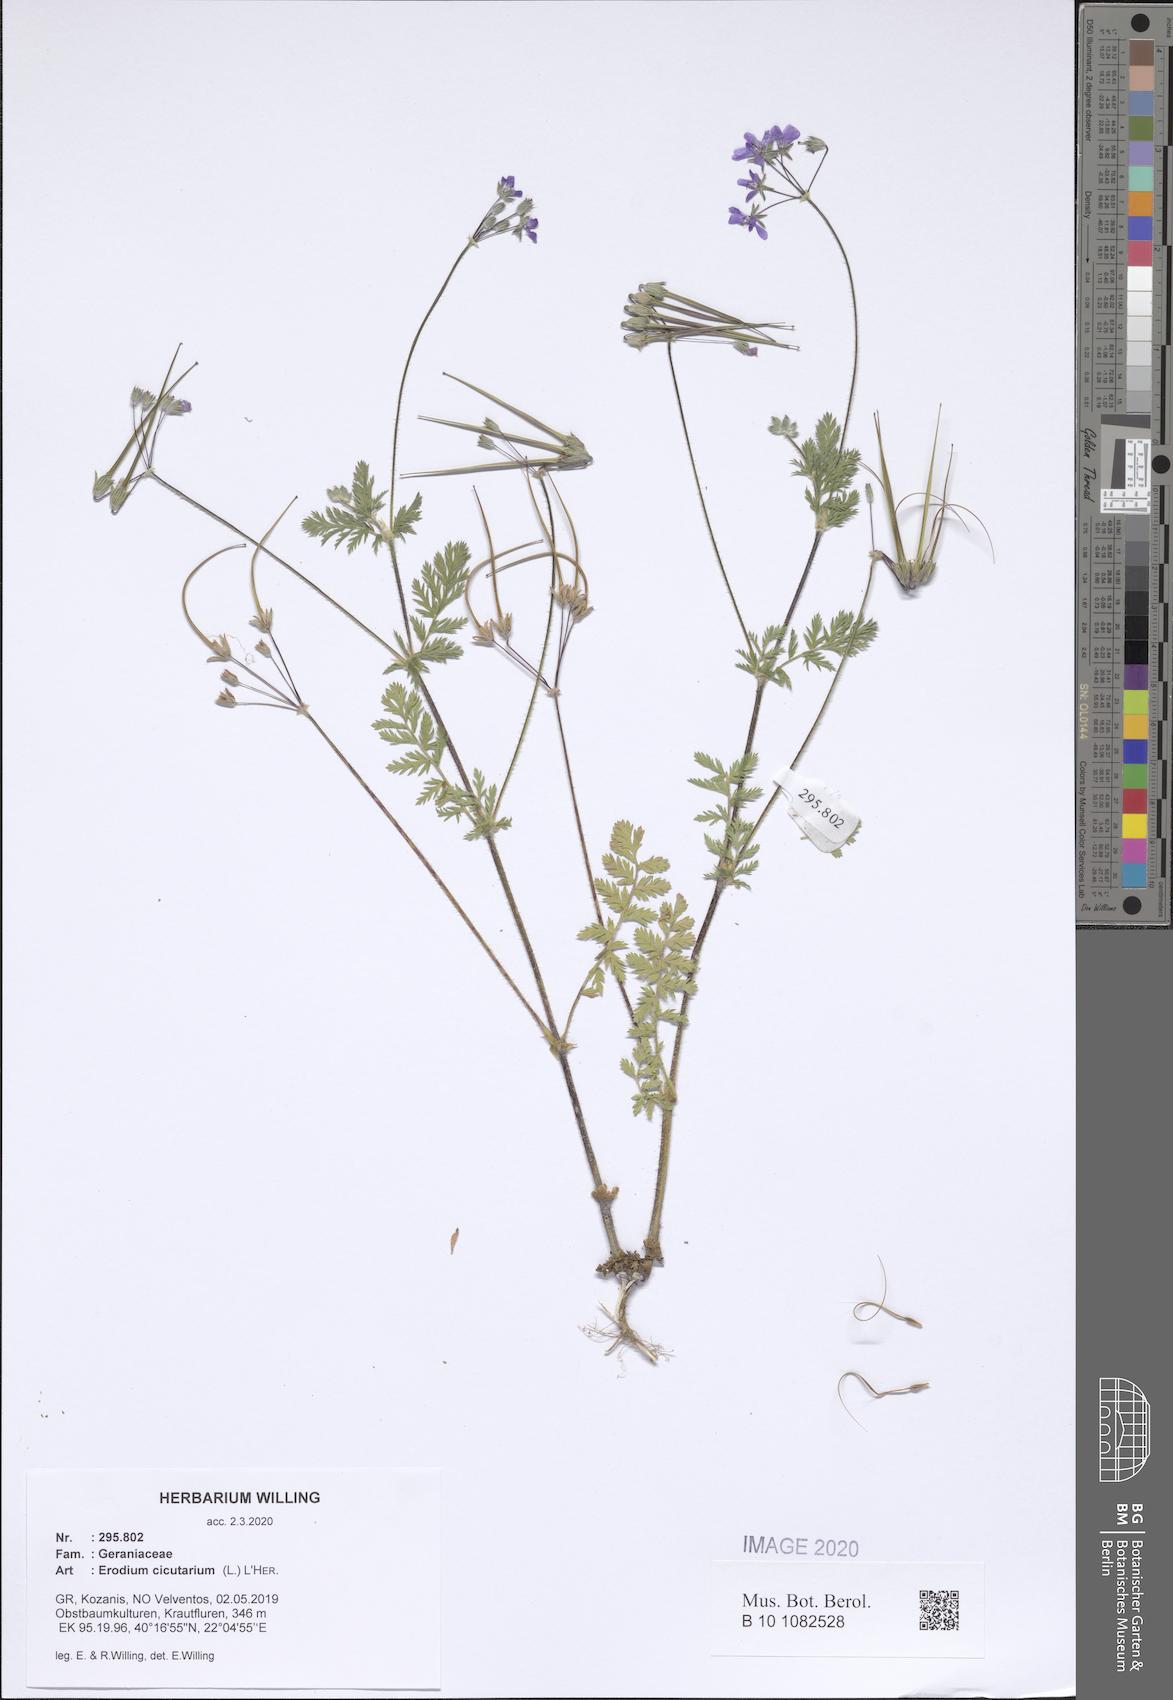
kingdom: Plantae
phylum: Tracheophyta
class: Magnoliopsida
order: Geraniales
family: Geraniaceae
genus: Erodium
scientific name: Erodium cicutarium
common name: Common stork's-bill
